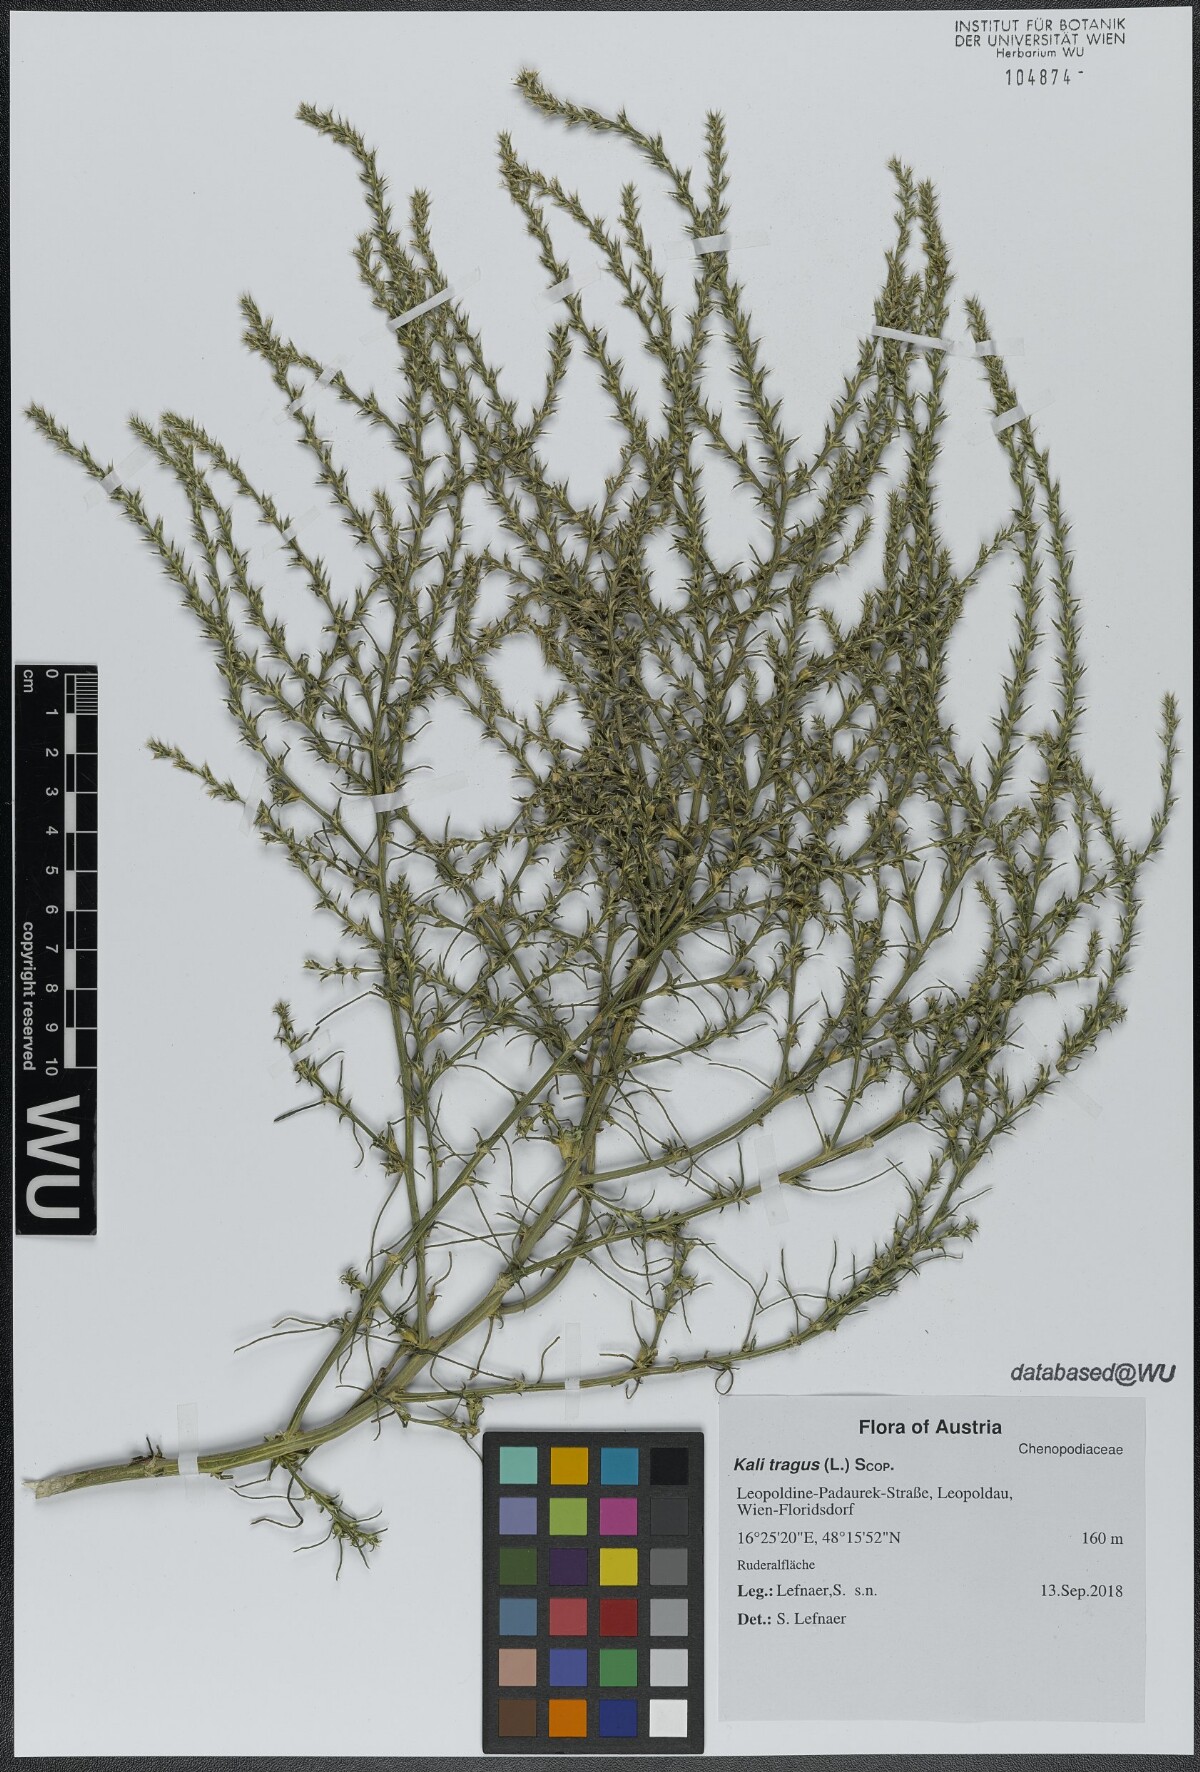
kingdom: Plantae
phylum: Tracheophyta
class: Magnoliopsida
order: Caryophyllales
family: Amaranthaceae
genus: Salsola
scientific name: Salsola tragus
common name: Prickly russian thistle
